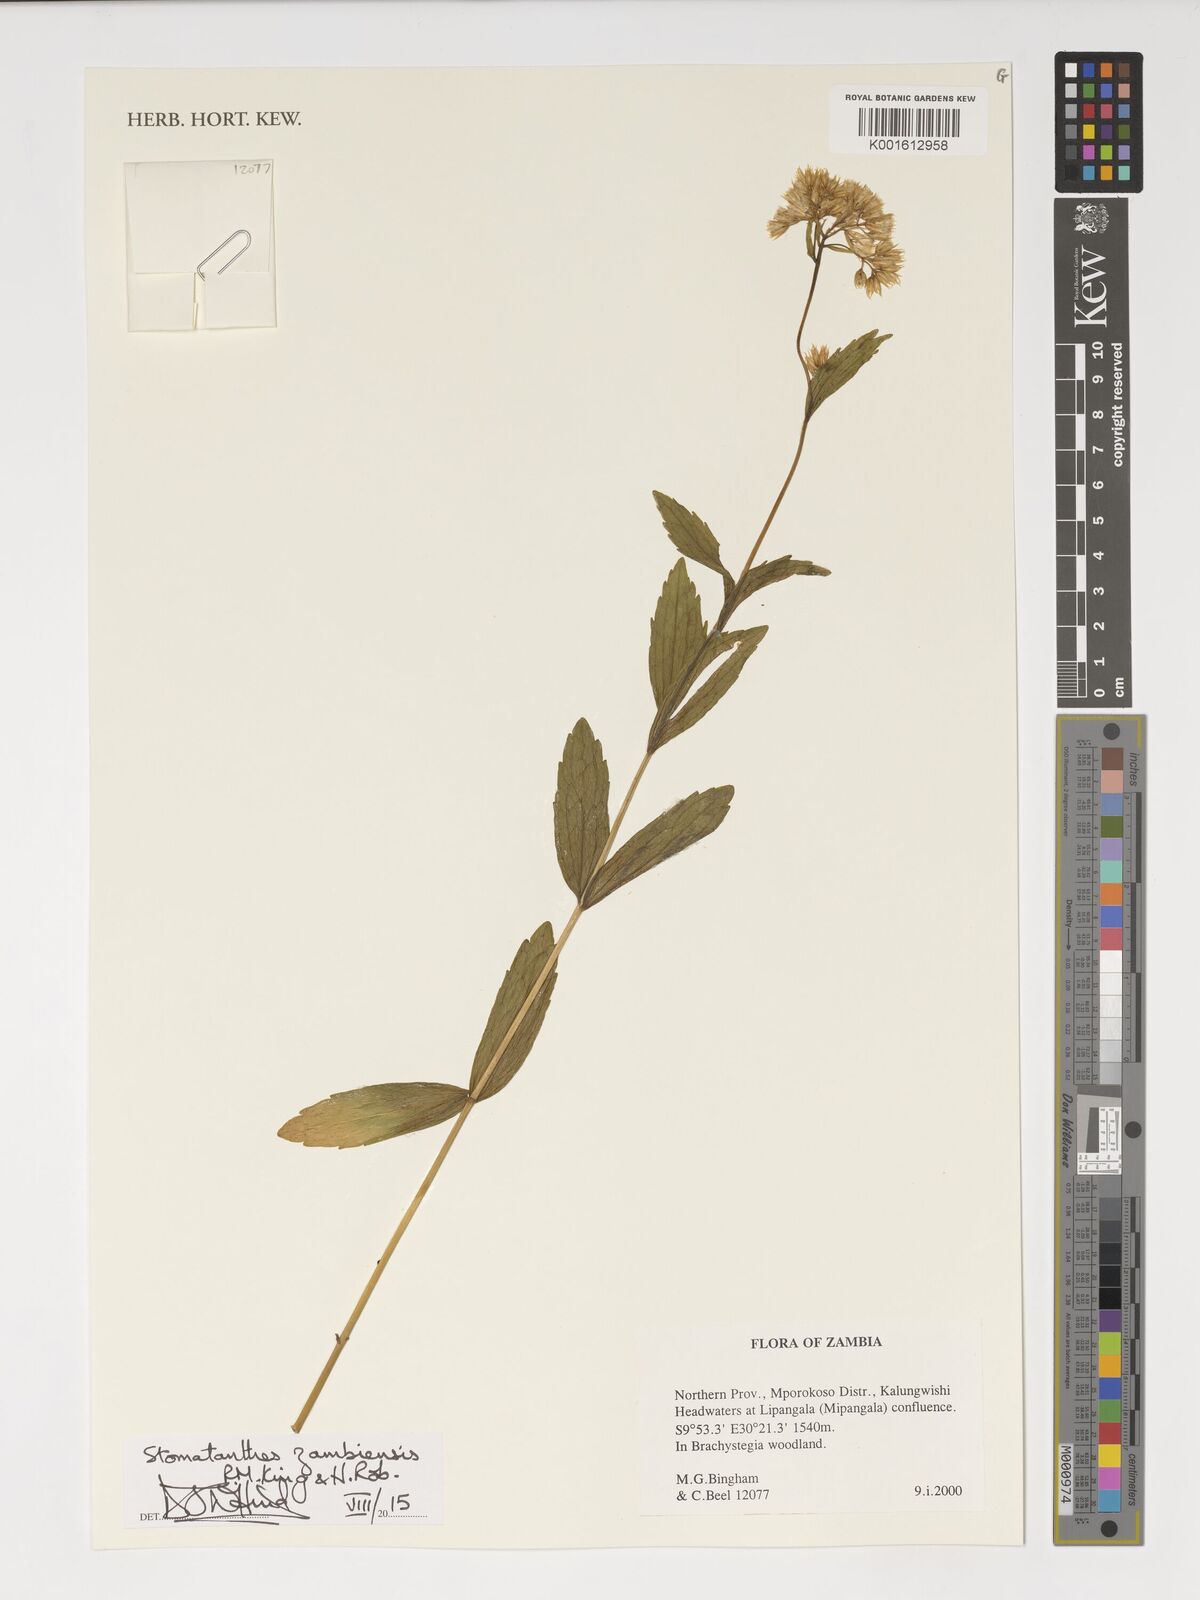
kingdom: Plantae
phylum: Tracheophyta
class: Magnoliopsida
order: Asterales
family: Asteraceae
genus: Criscianthus
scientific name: Criscianthus zambiensis
